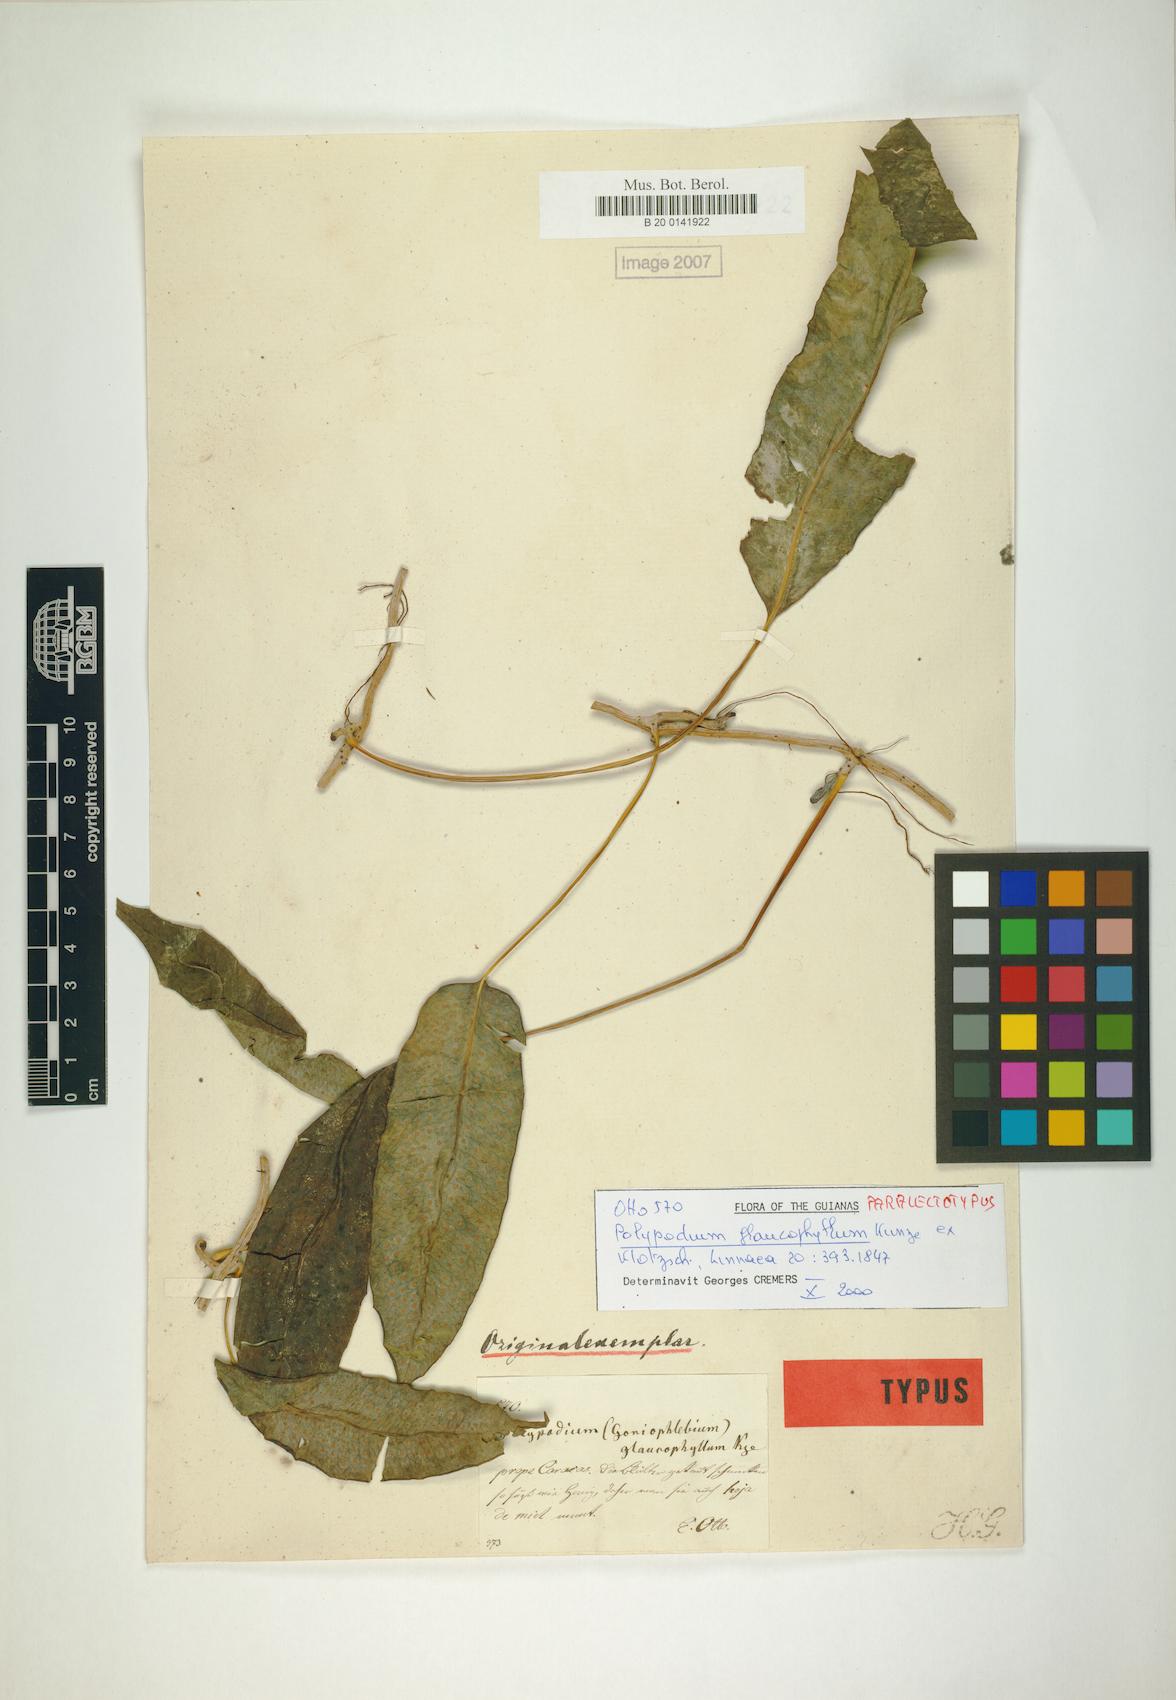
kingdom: Plantae
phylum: Tracheophyta
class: Polypodiopsida
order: Polypodiales
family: Polypodiaceae
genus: Serpocaulon
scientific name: Serpocaulon levigatum
